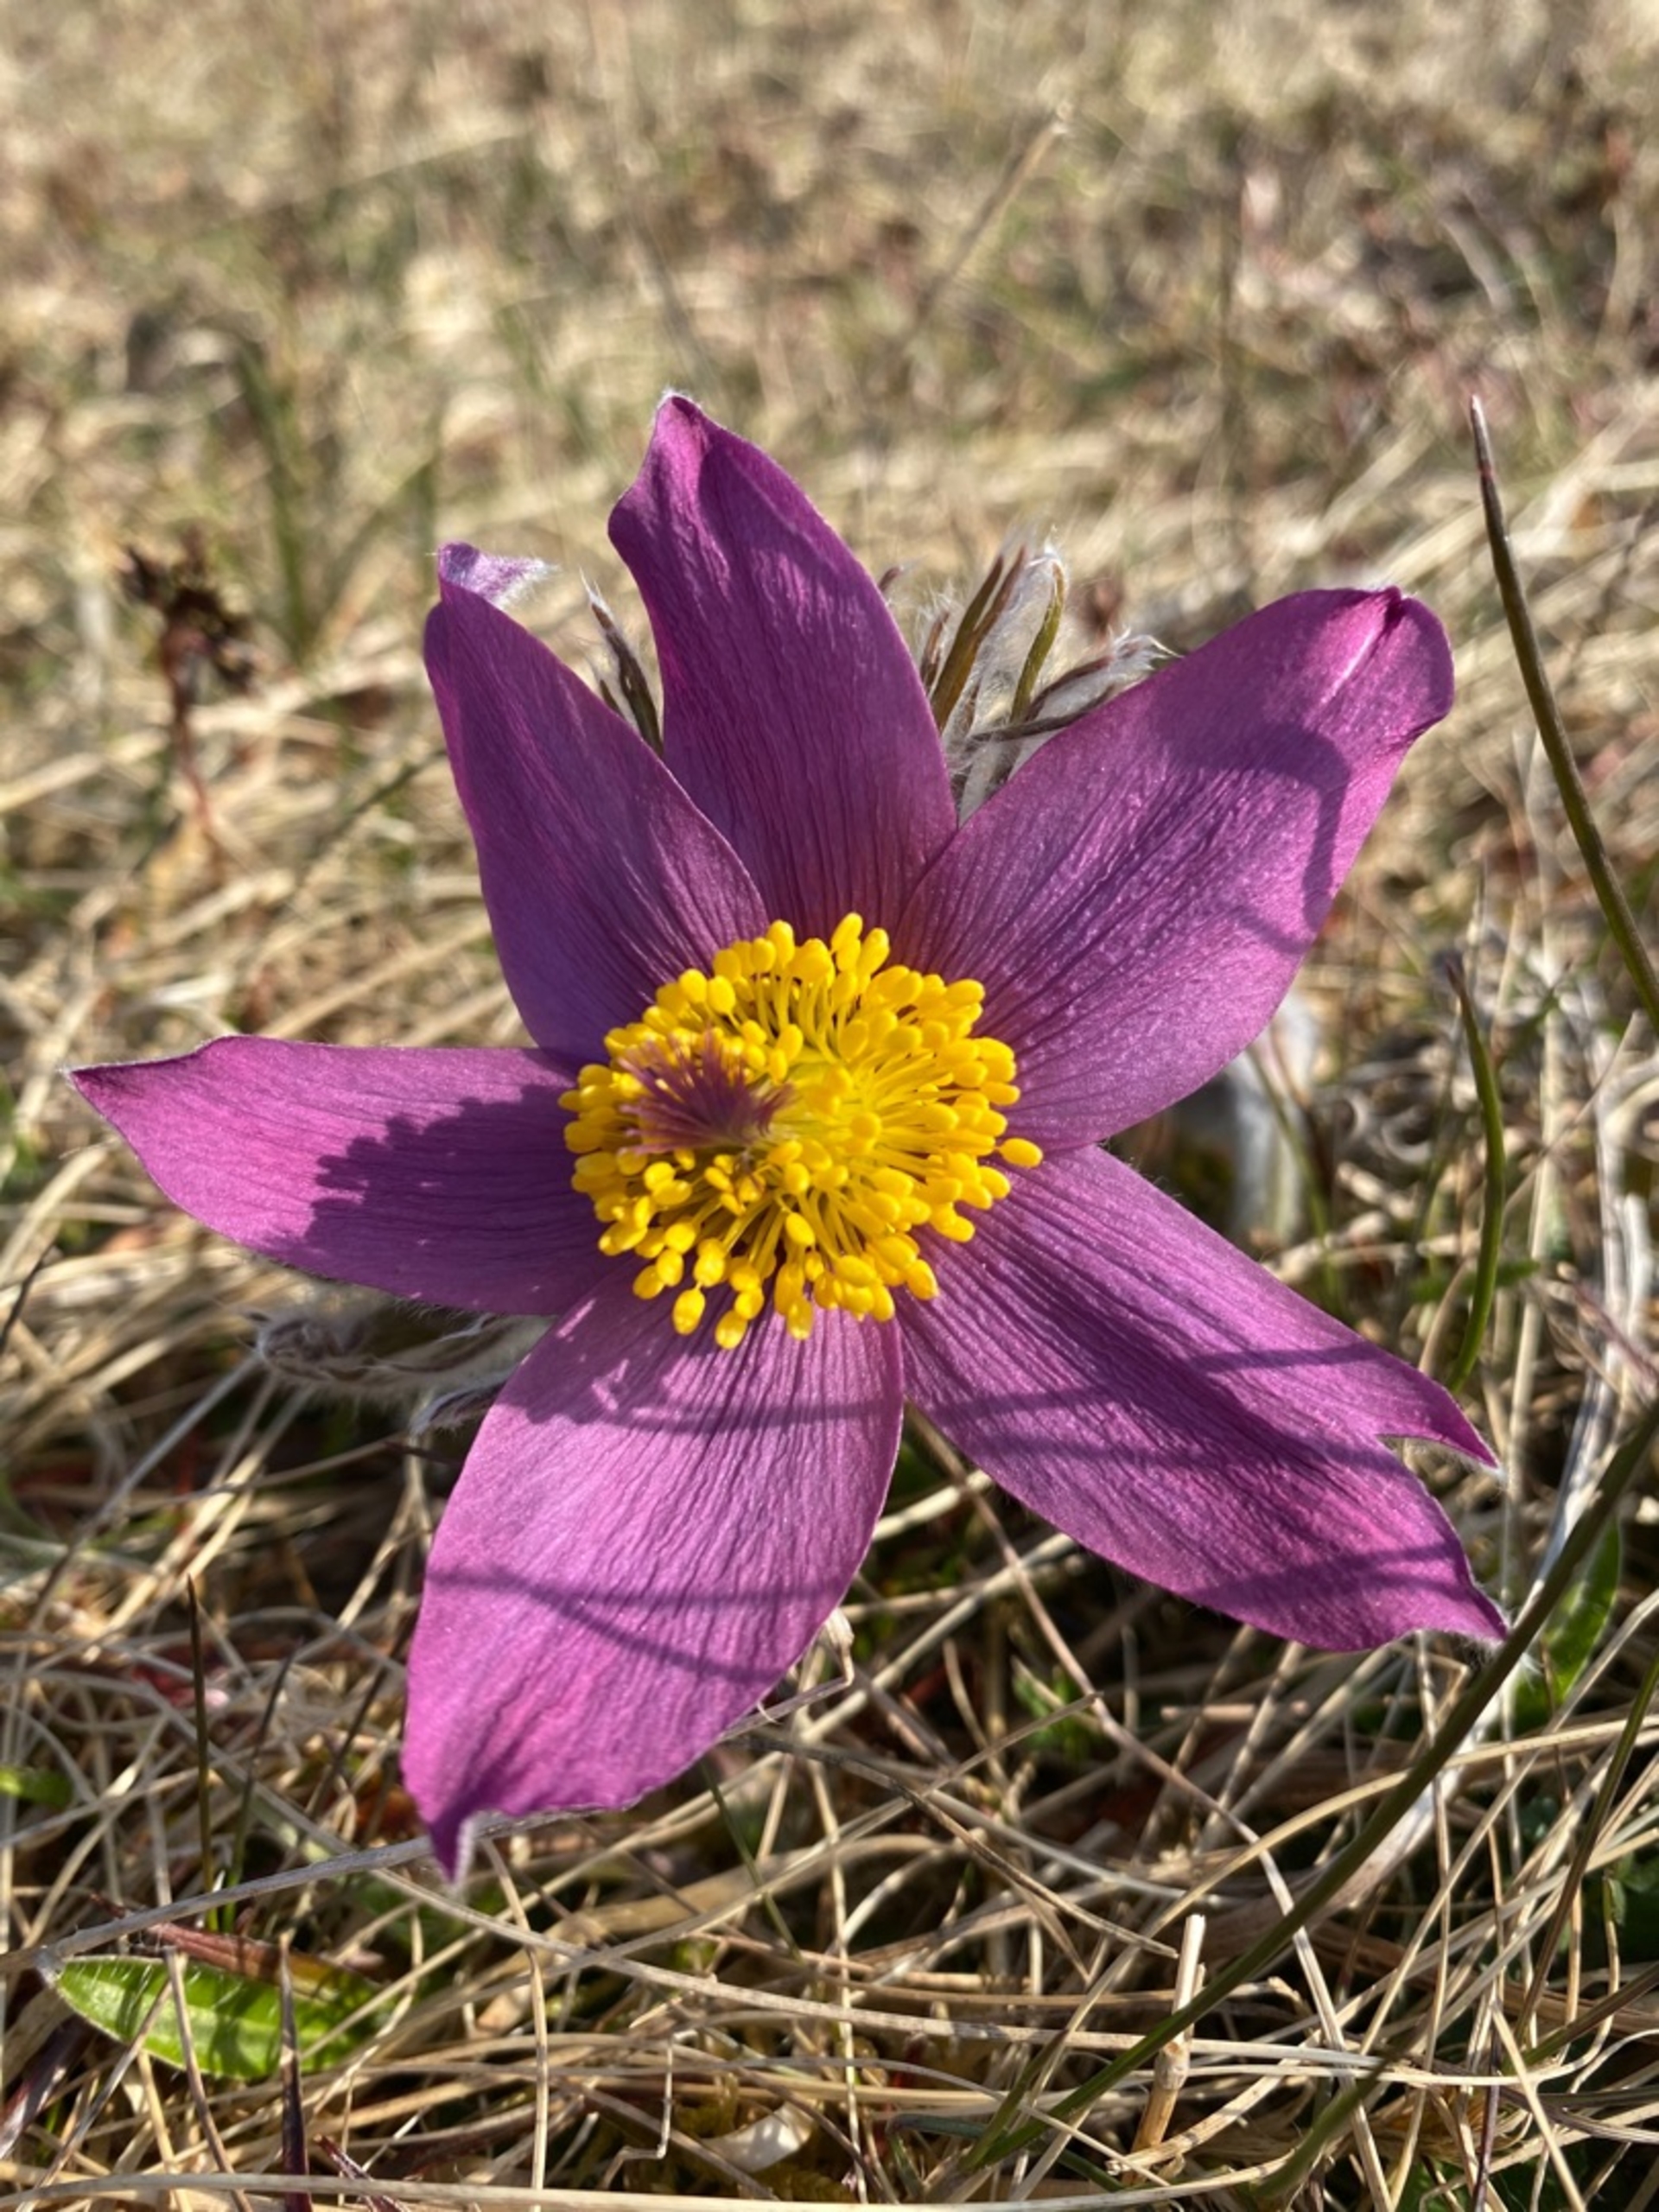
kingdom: Plantae
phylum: Tracheophyta
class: Magnoliopsida
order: Ranunculales
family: Ranunculaceae
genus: Pulsatilla
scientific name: Pulsatilla vulgaris
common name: Opret kobjælde
